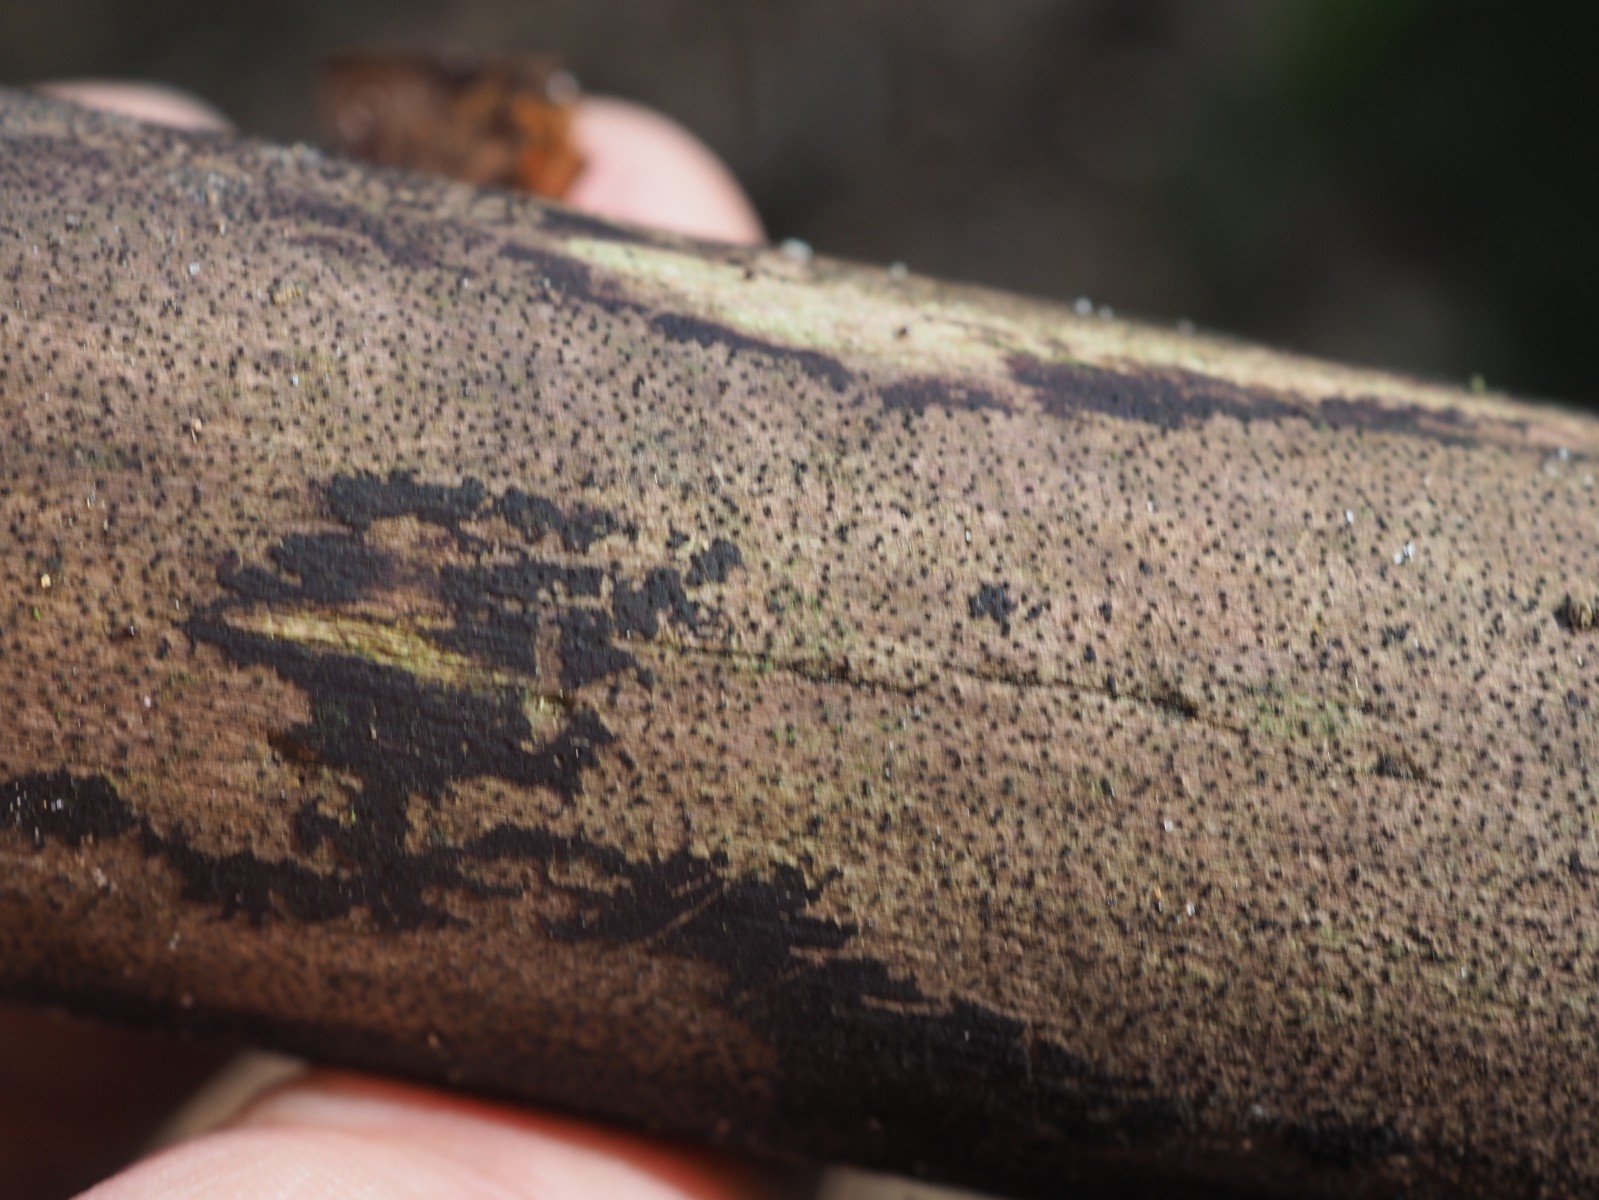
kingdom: Fungi
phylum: Ascomycota
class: Sordariomycetes
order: Xylariales
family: Diatrypaceae
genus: Eutypa
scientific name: Eutypa maura
